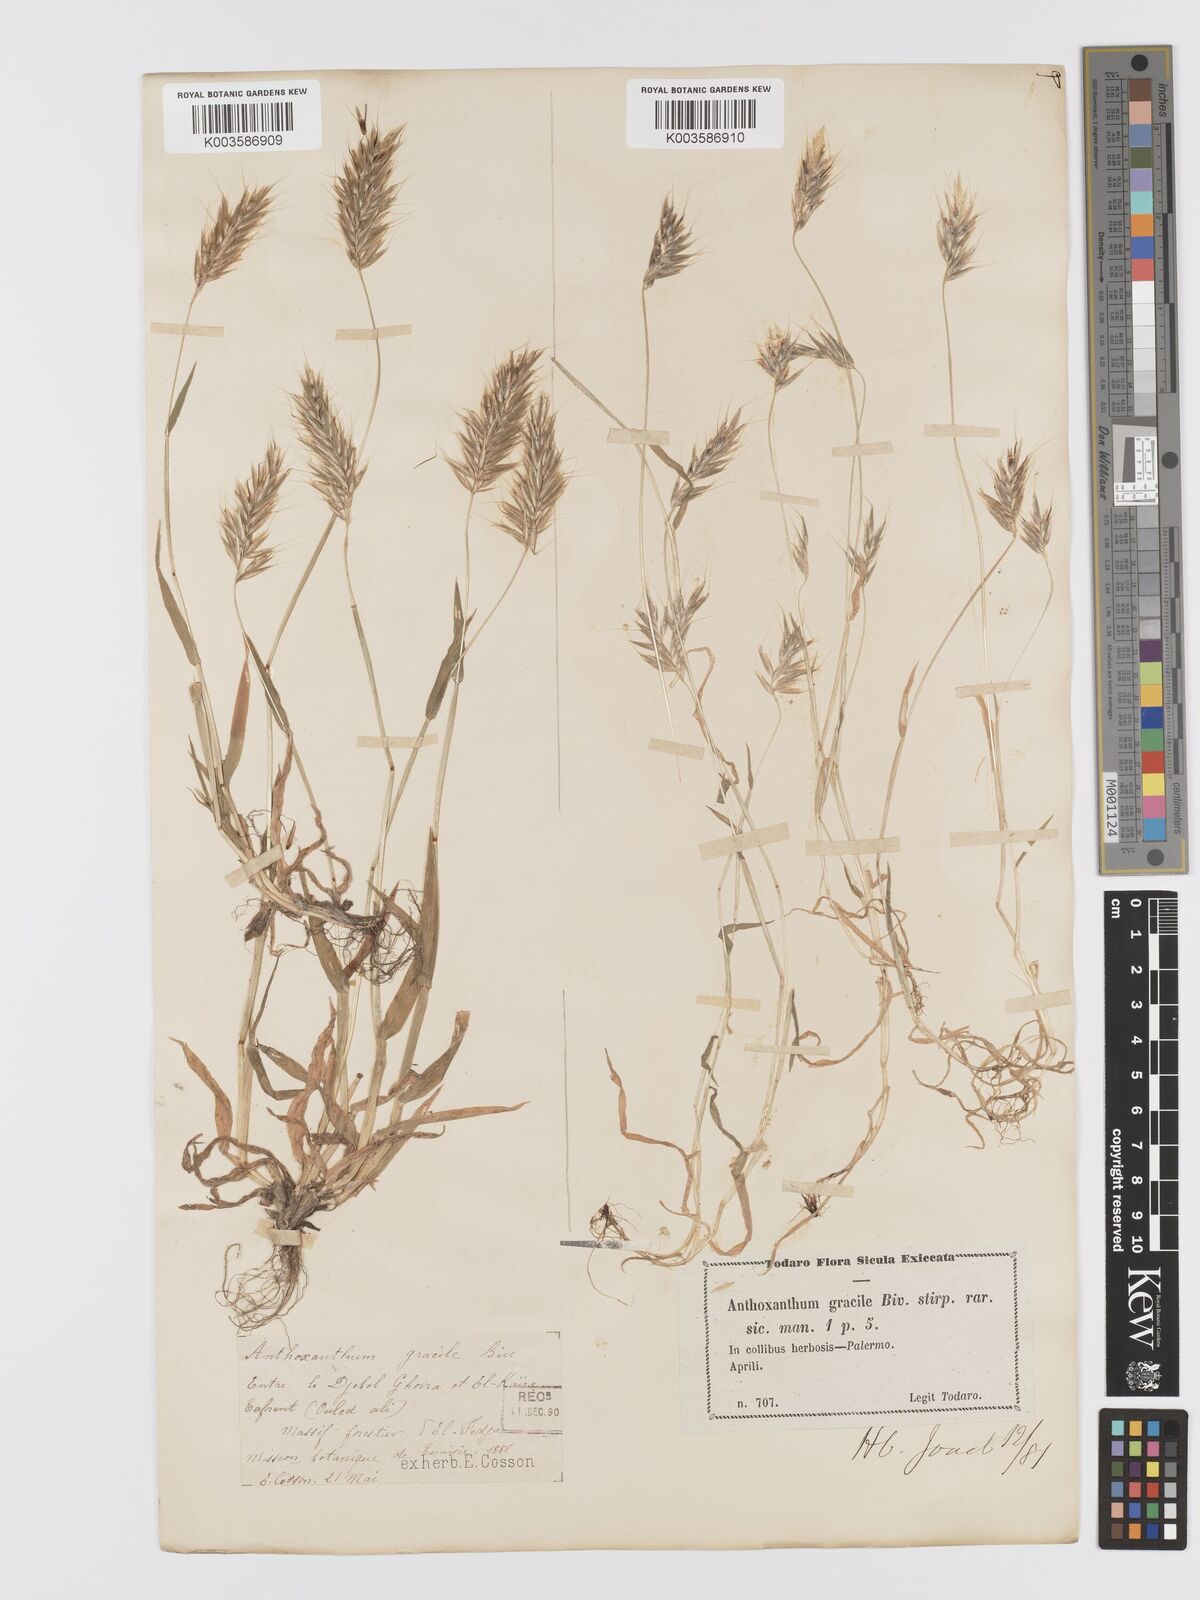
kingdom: Plantae
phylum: Tracheophyta
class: Liliopsida
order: Poales
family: Poaceae
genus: Anthoxanthum
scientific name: Anthoxanthum gracile
